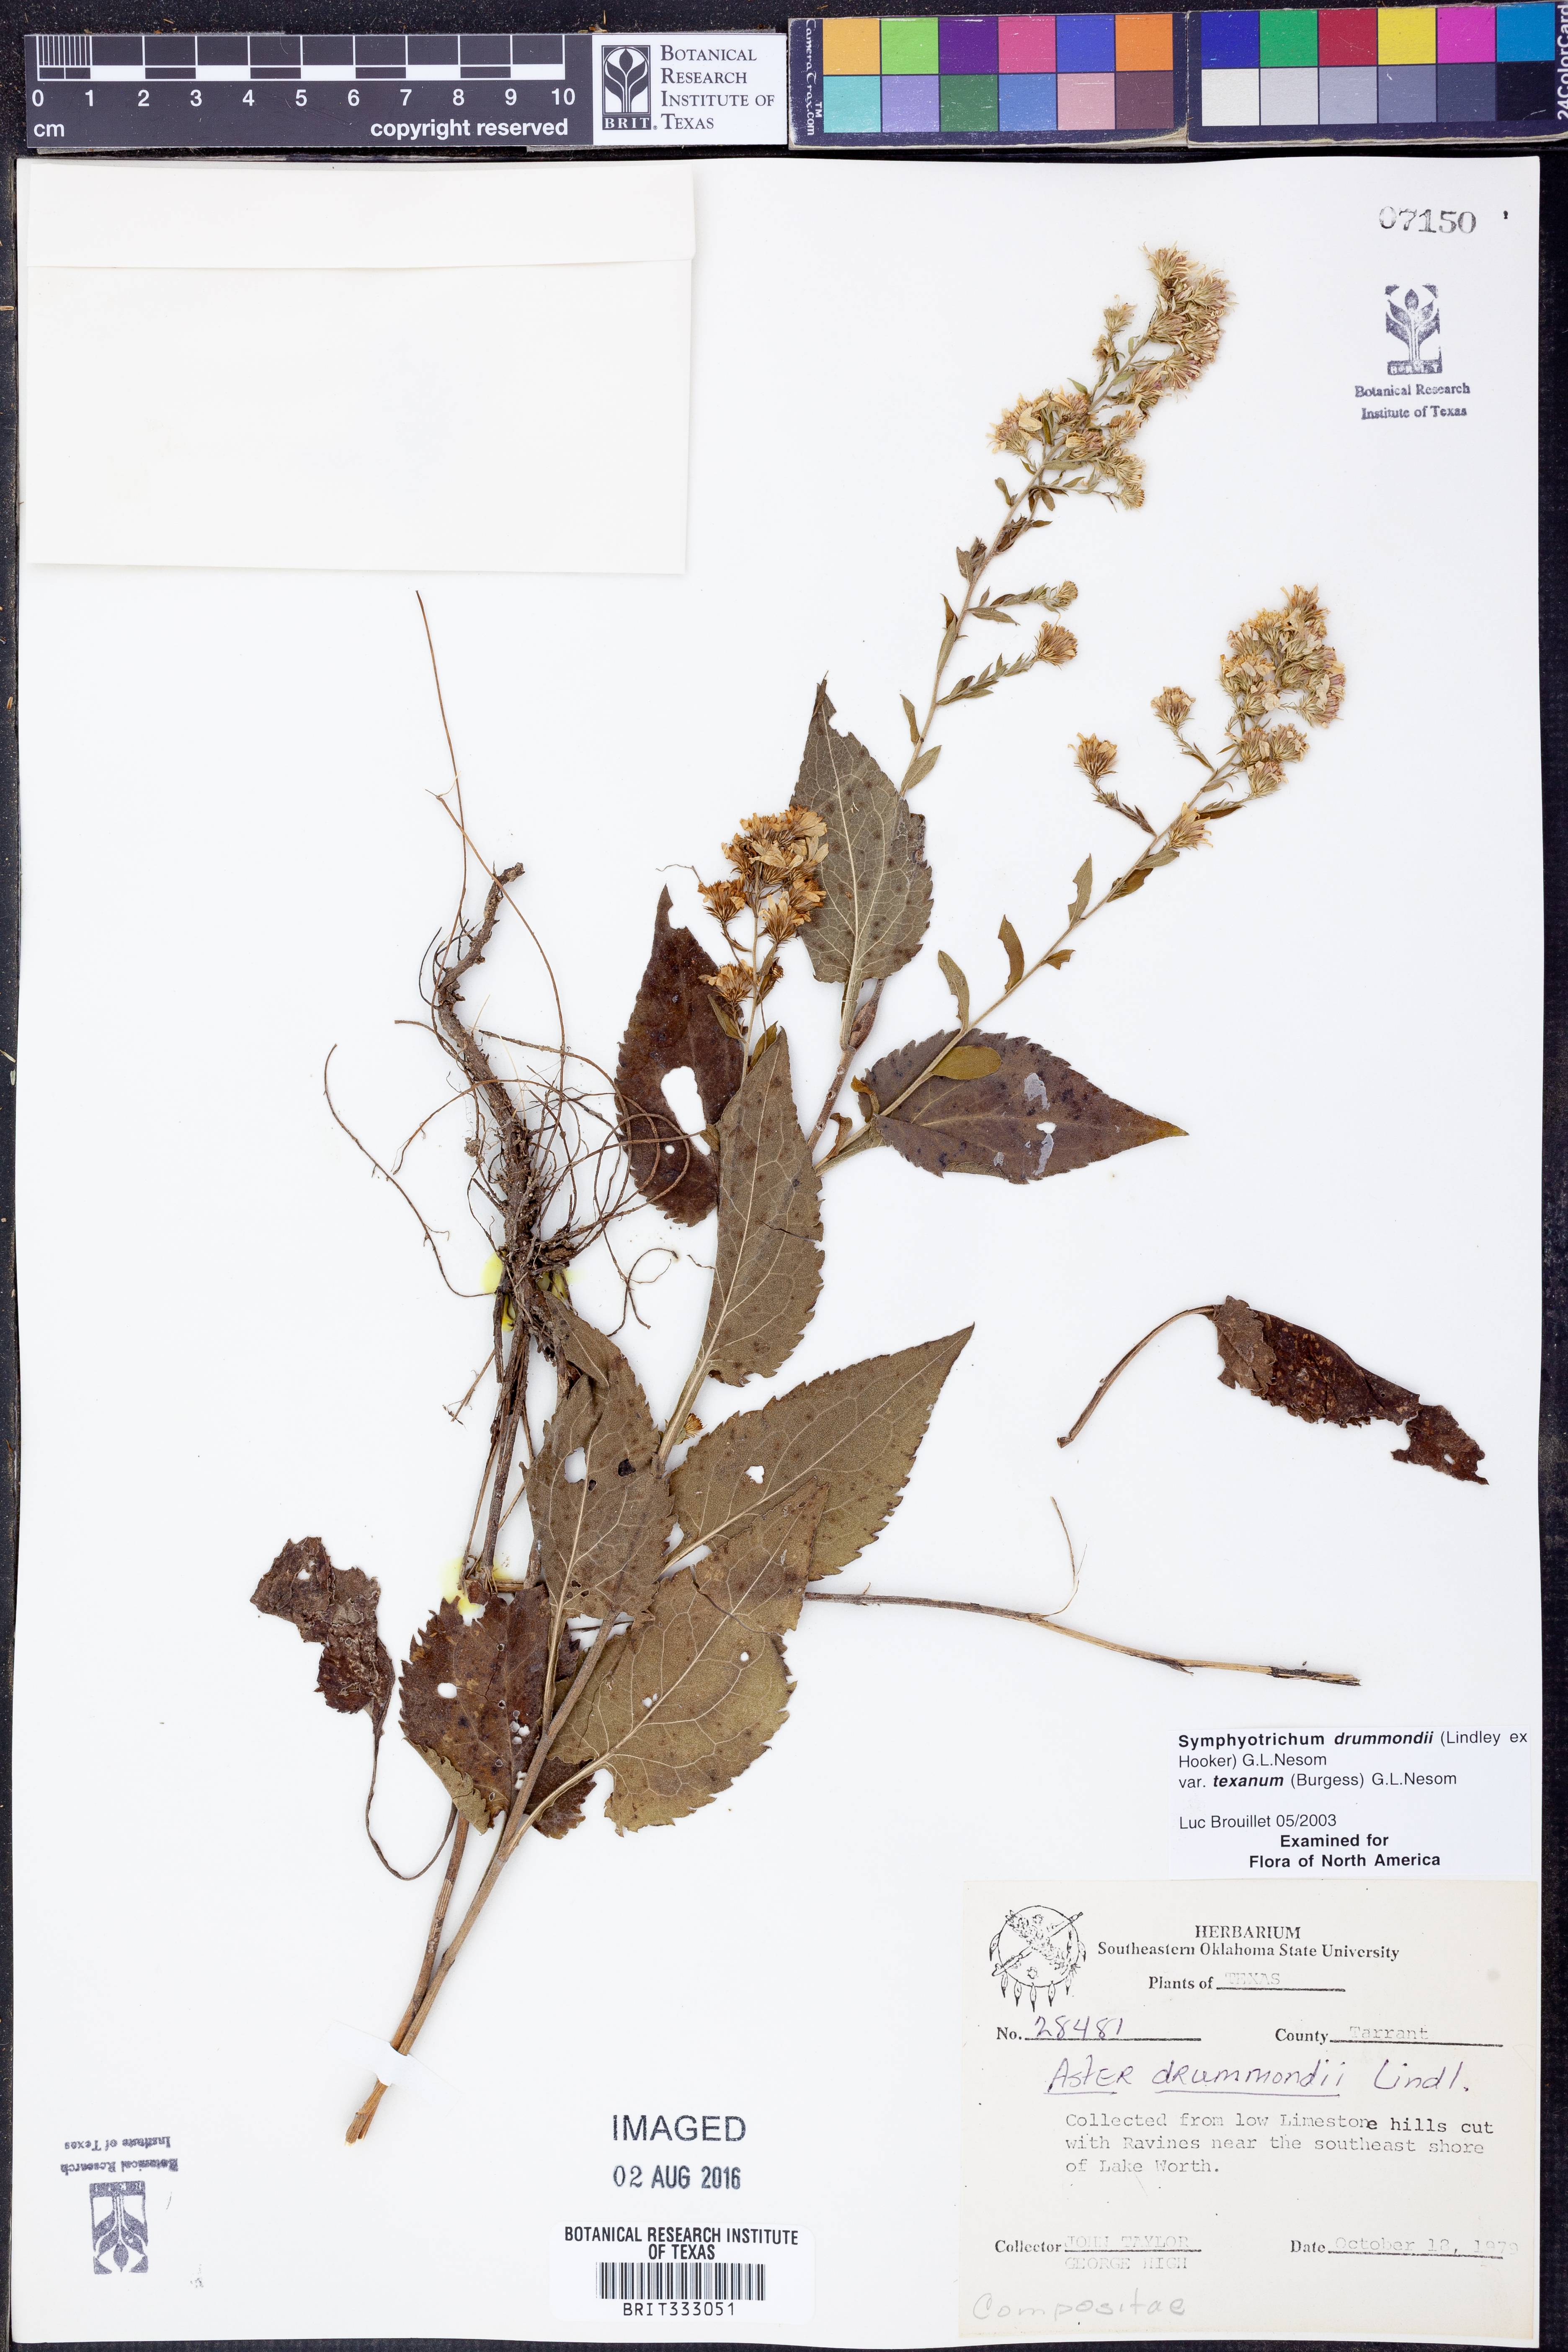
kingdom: Plantae
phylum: Tracheophyta
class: Magnoliopsida
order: Asterales
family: Asteraceae
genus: Symphyotrichum
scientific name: Symphyotrichum drummondii
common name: Drummond's aster
